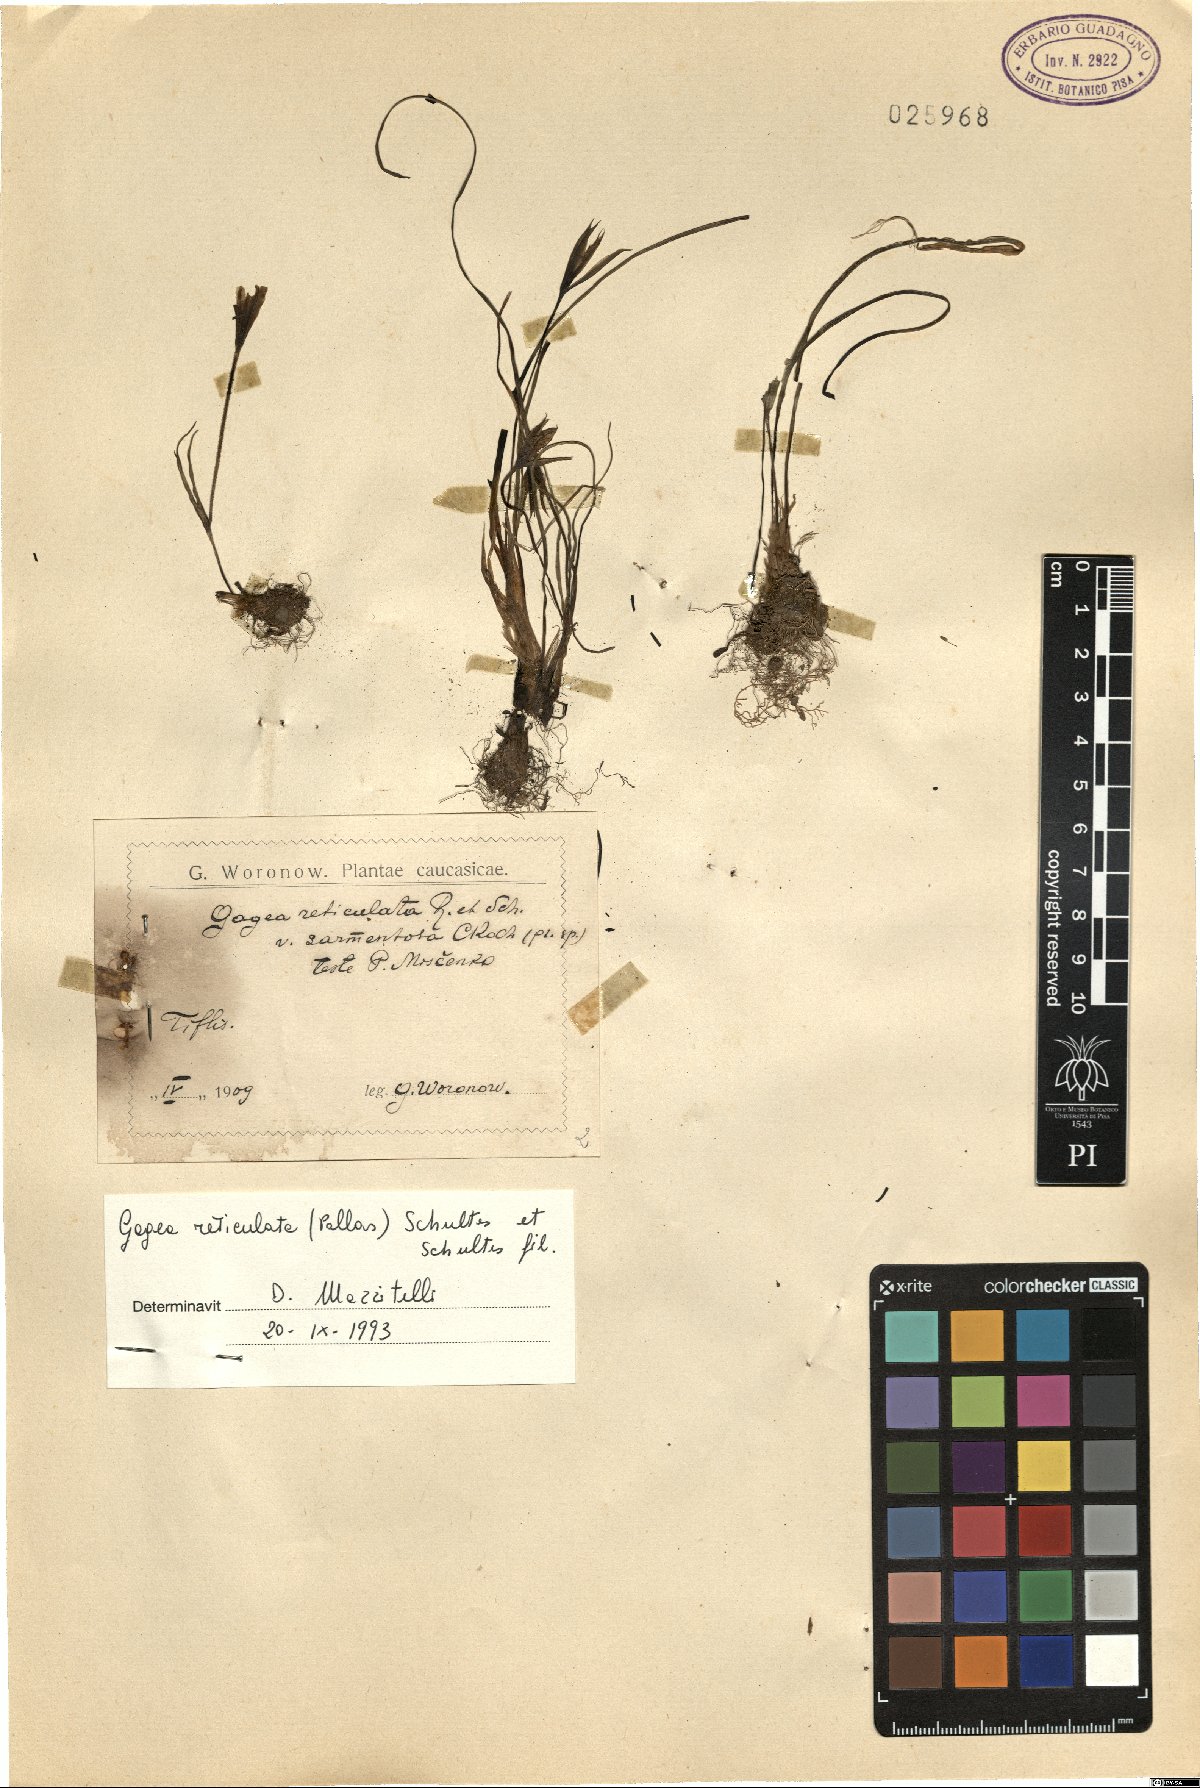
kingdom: Plantae
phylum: Tracheophyta
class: Liliopsida
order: Liliales
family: Liliaceae
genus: Gagea
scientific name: Gagea reticulata
